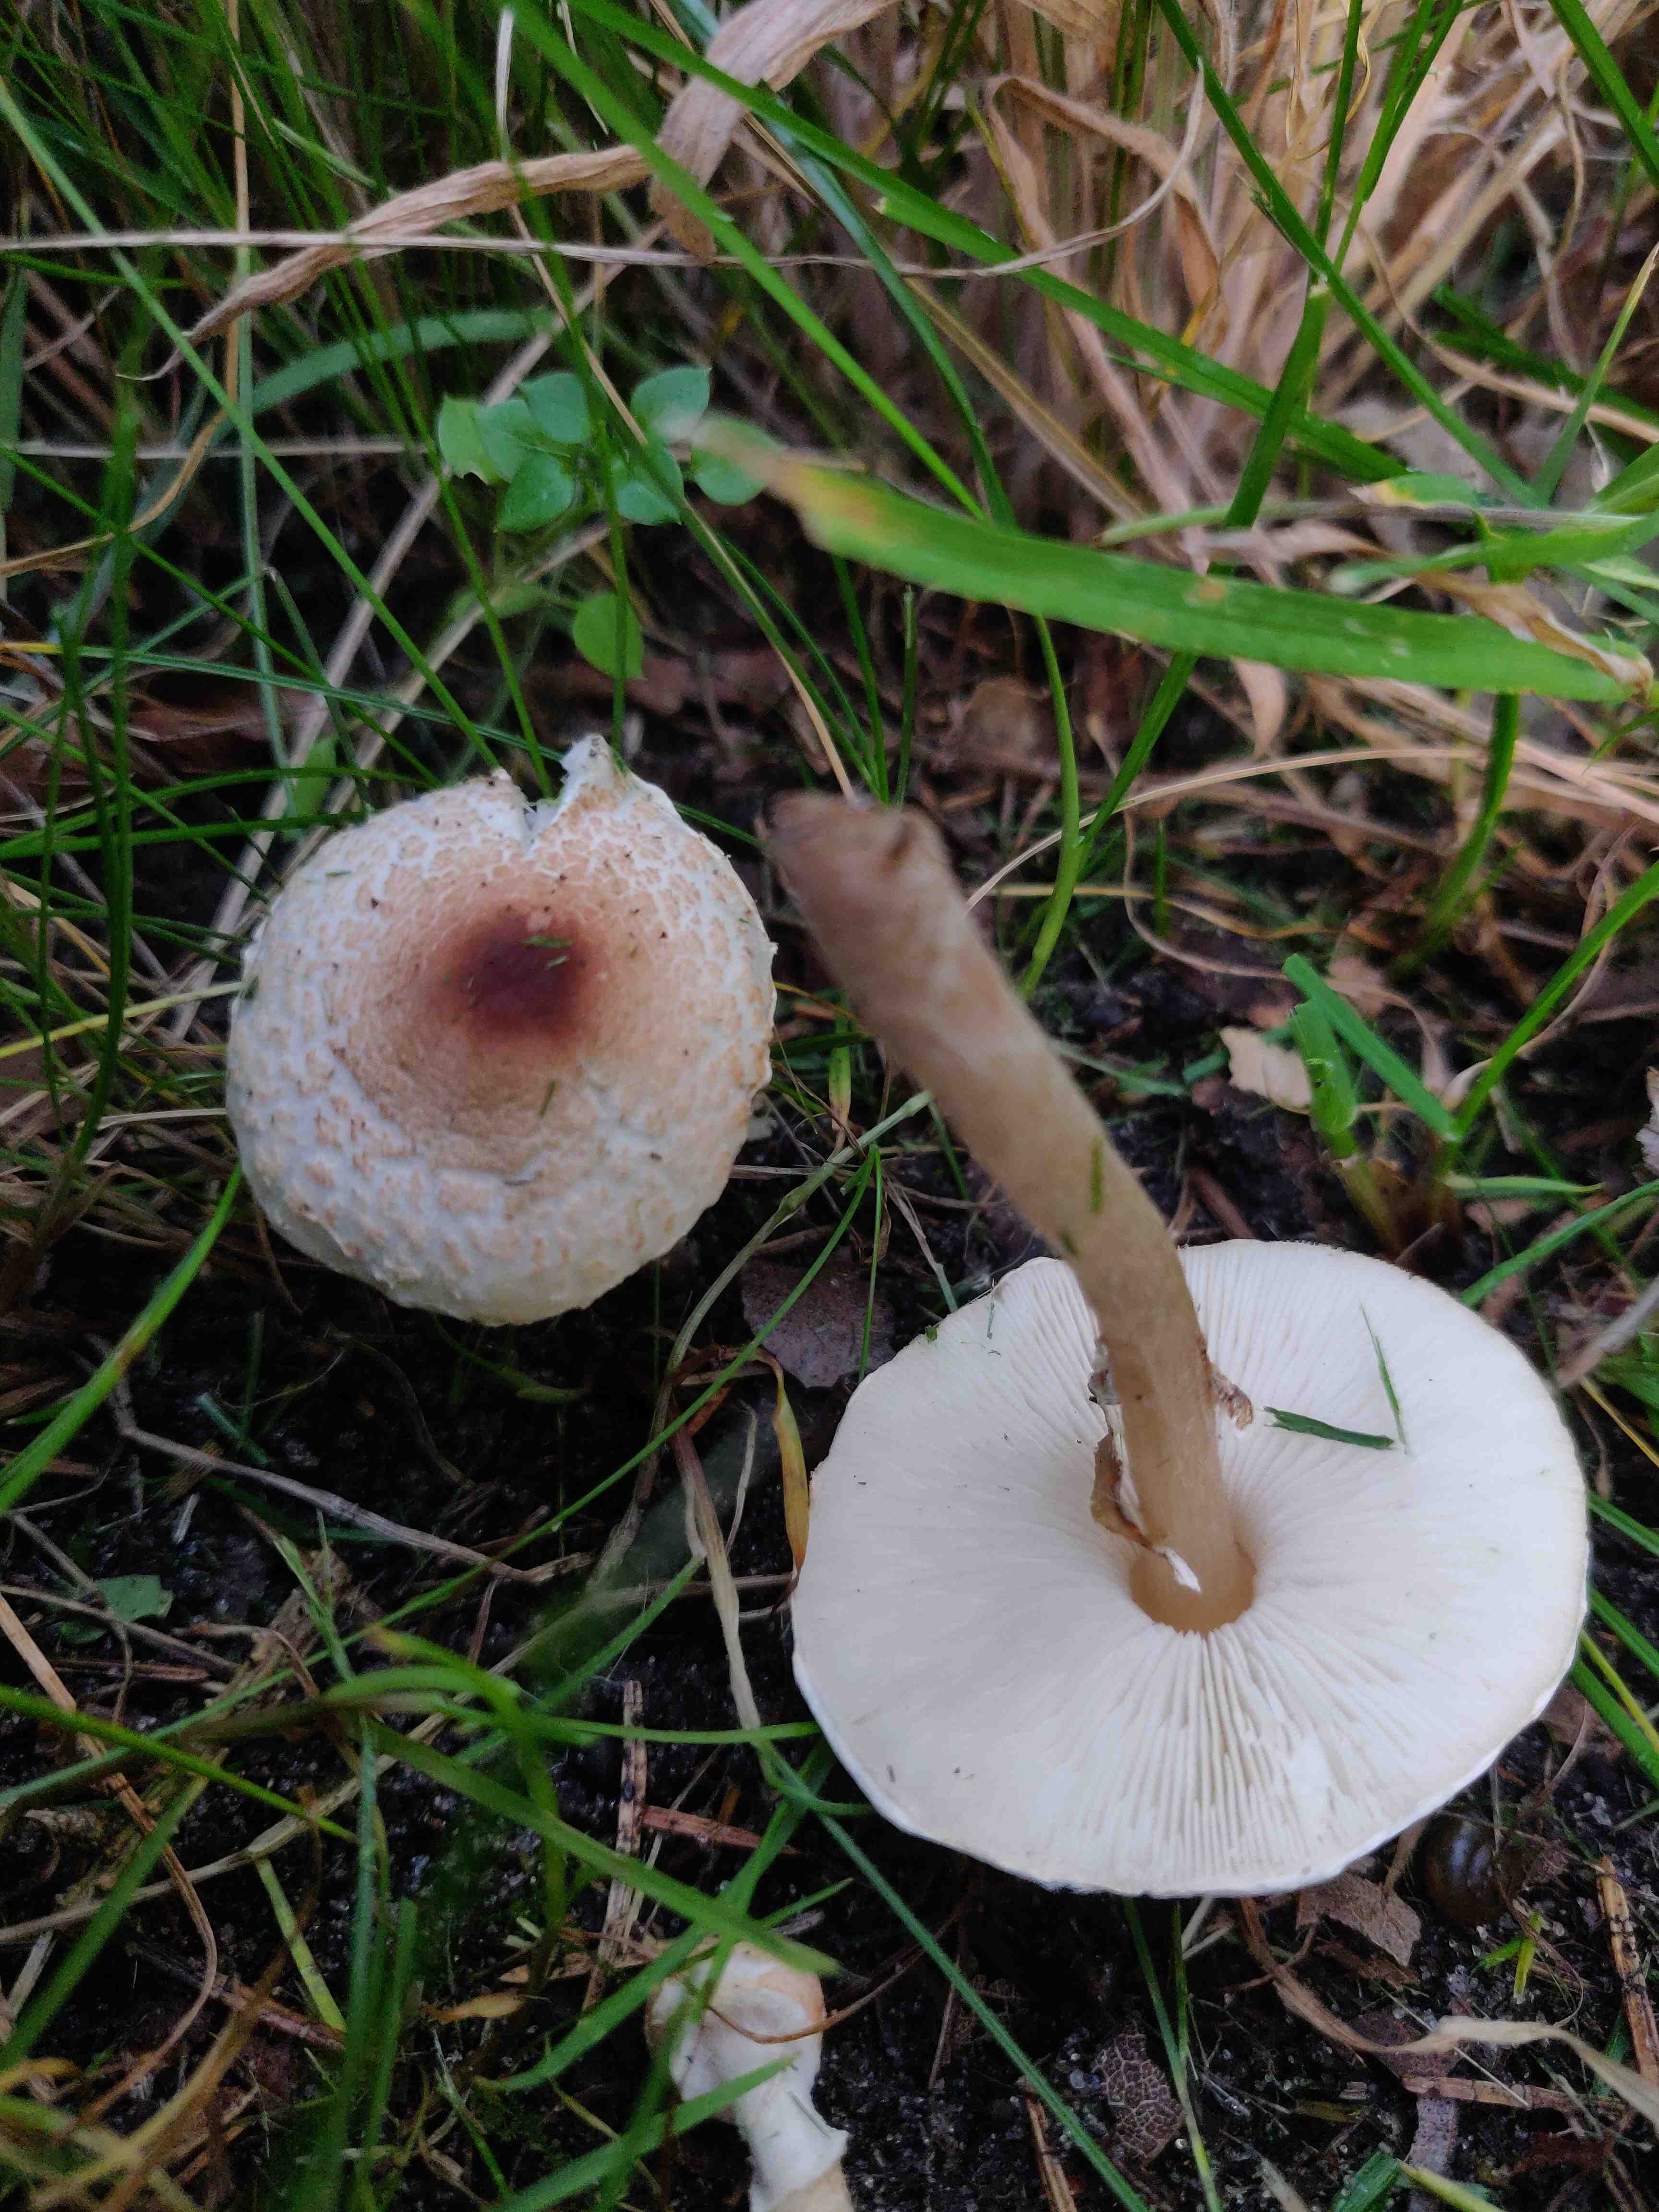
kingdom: Fungi
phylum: Basidiomycota
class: Agaricomycetes
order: Agaricales
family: Agaricaceae
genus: Lepiota
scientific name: Lepiota cristata
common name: stinkende parasolhat
